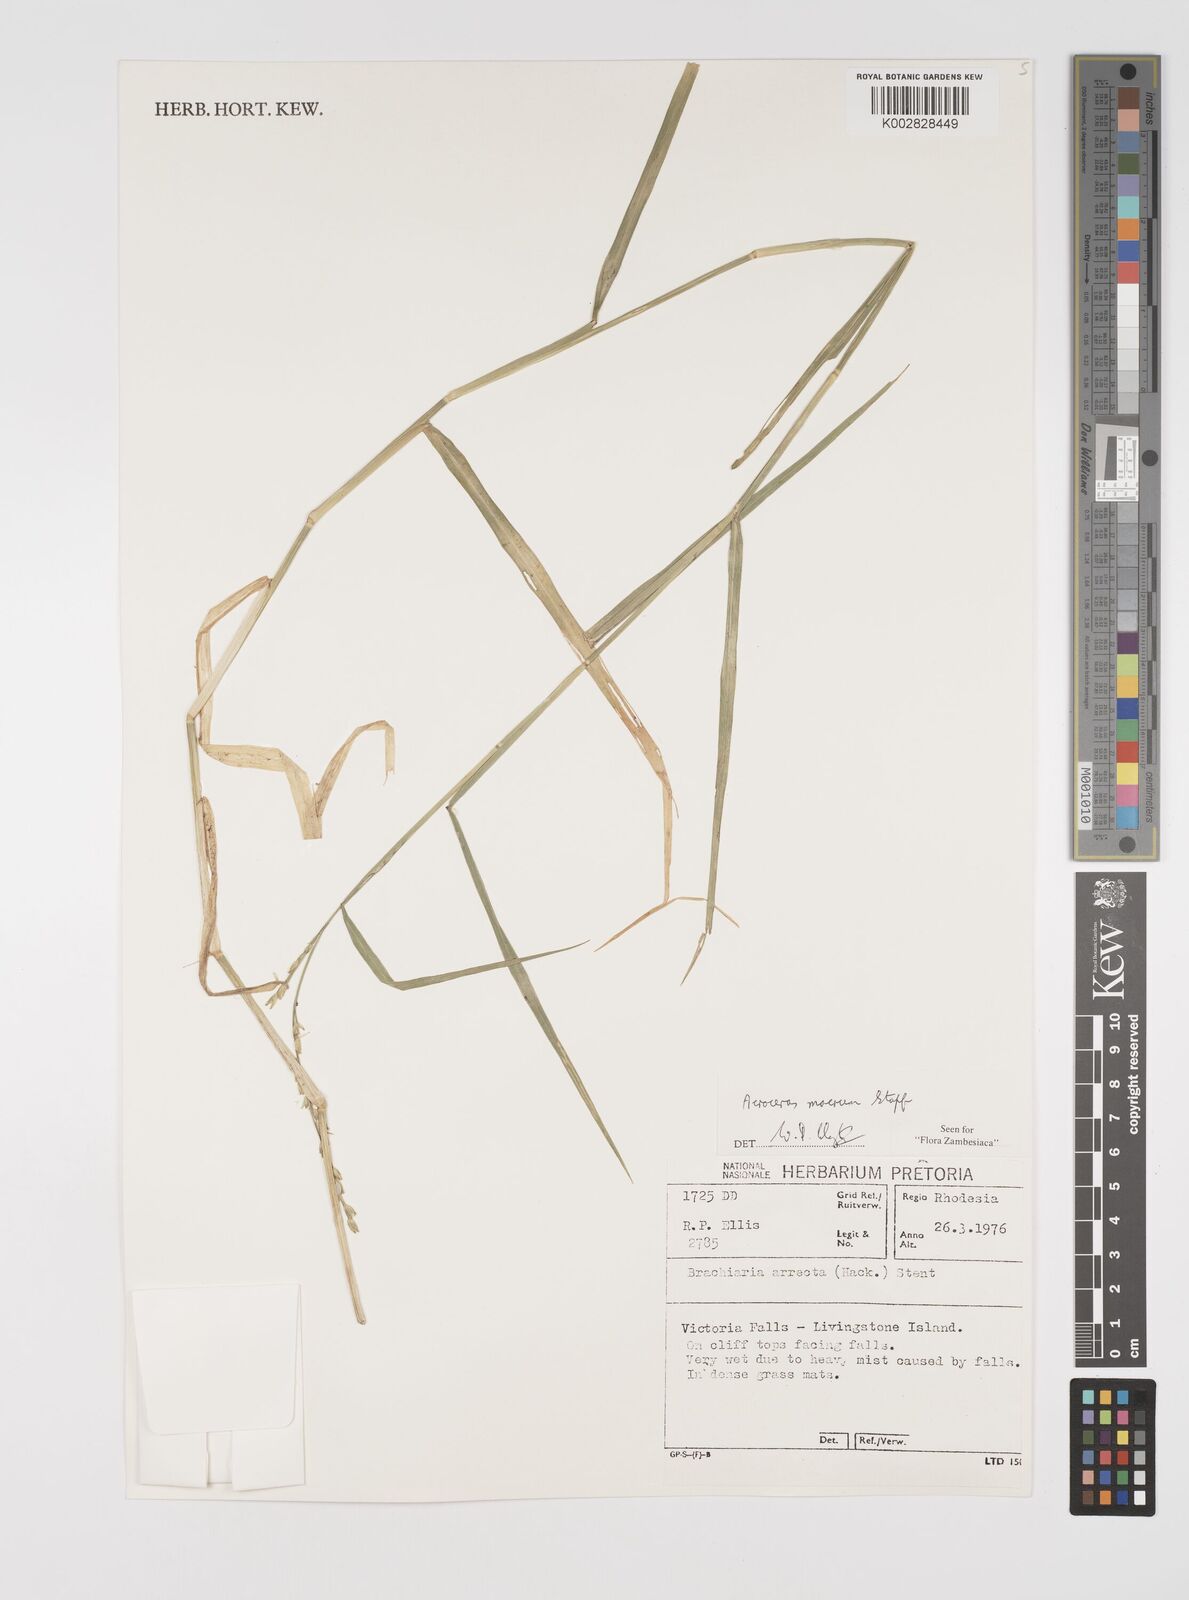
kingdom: Plantae
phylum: Tracheophyta
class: Liliopsida
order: Poales
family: Poaceae
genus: Acroceras
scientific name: Acroceras macrum
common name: Nyl grass
